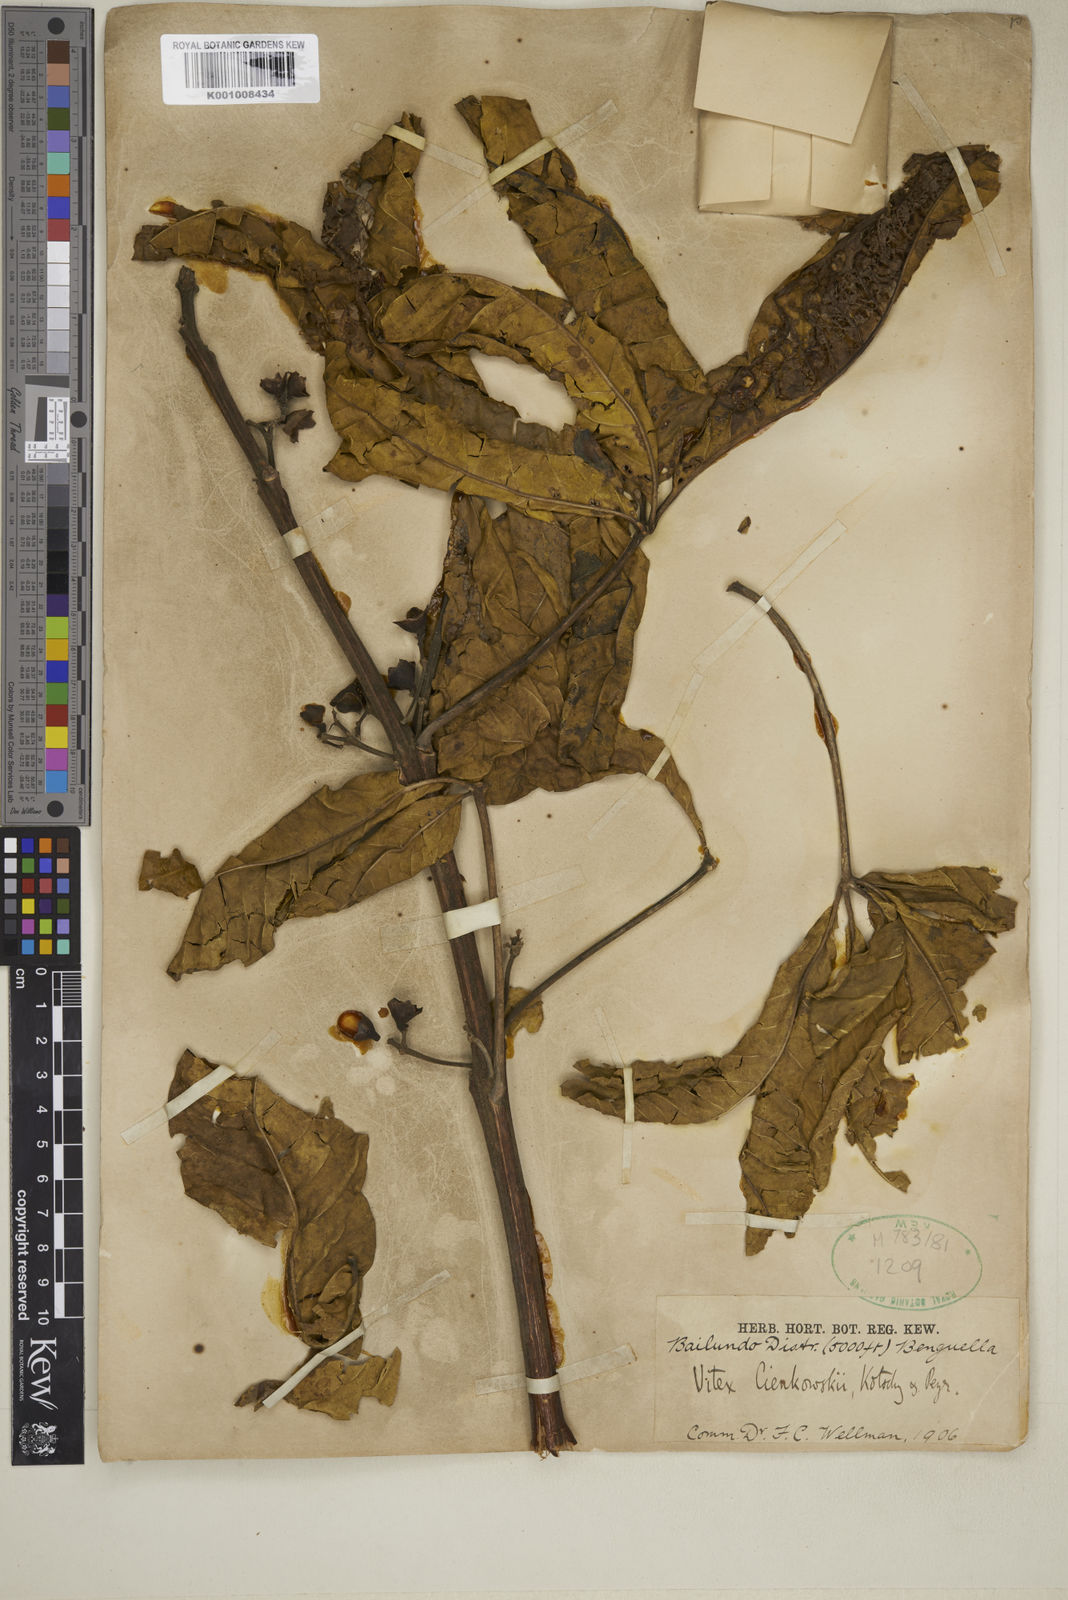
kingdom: Plantae
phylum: Tracheophyta
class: Magnoliopsida
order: Lamiales
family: Lamiaceae
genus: Vitex
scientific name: Vitex doniana
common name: Black plum
